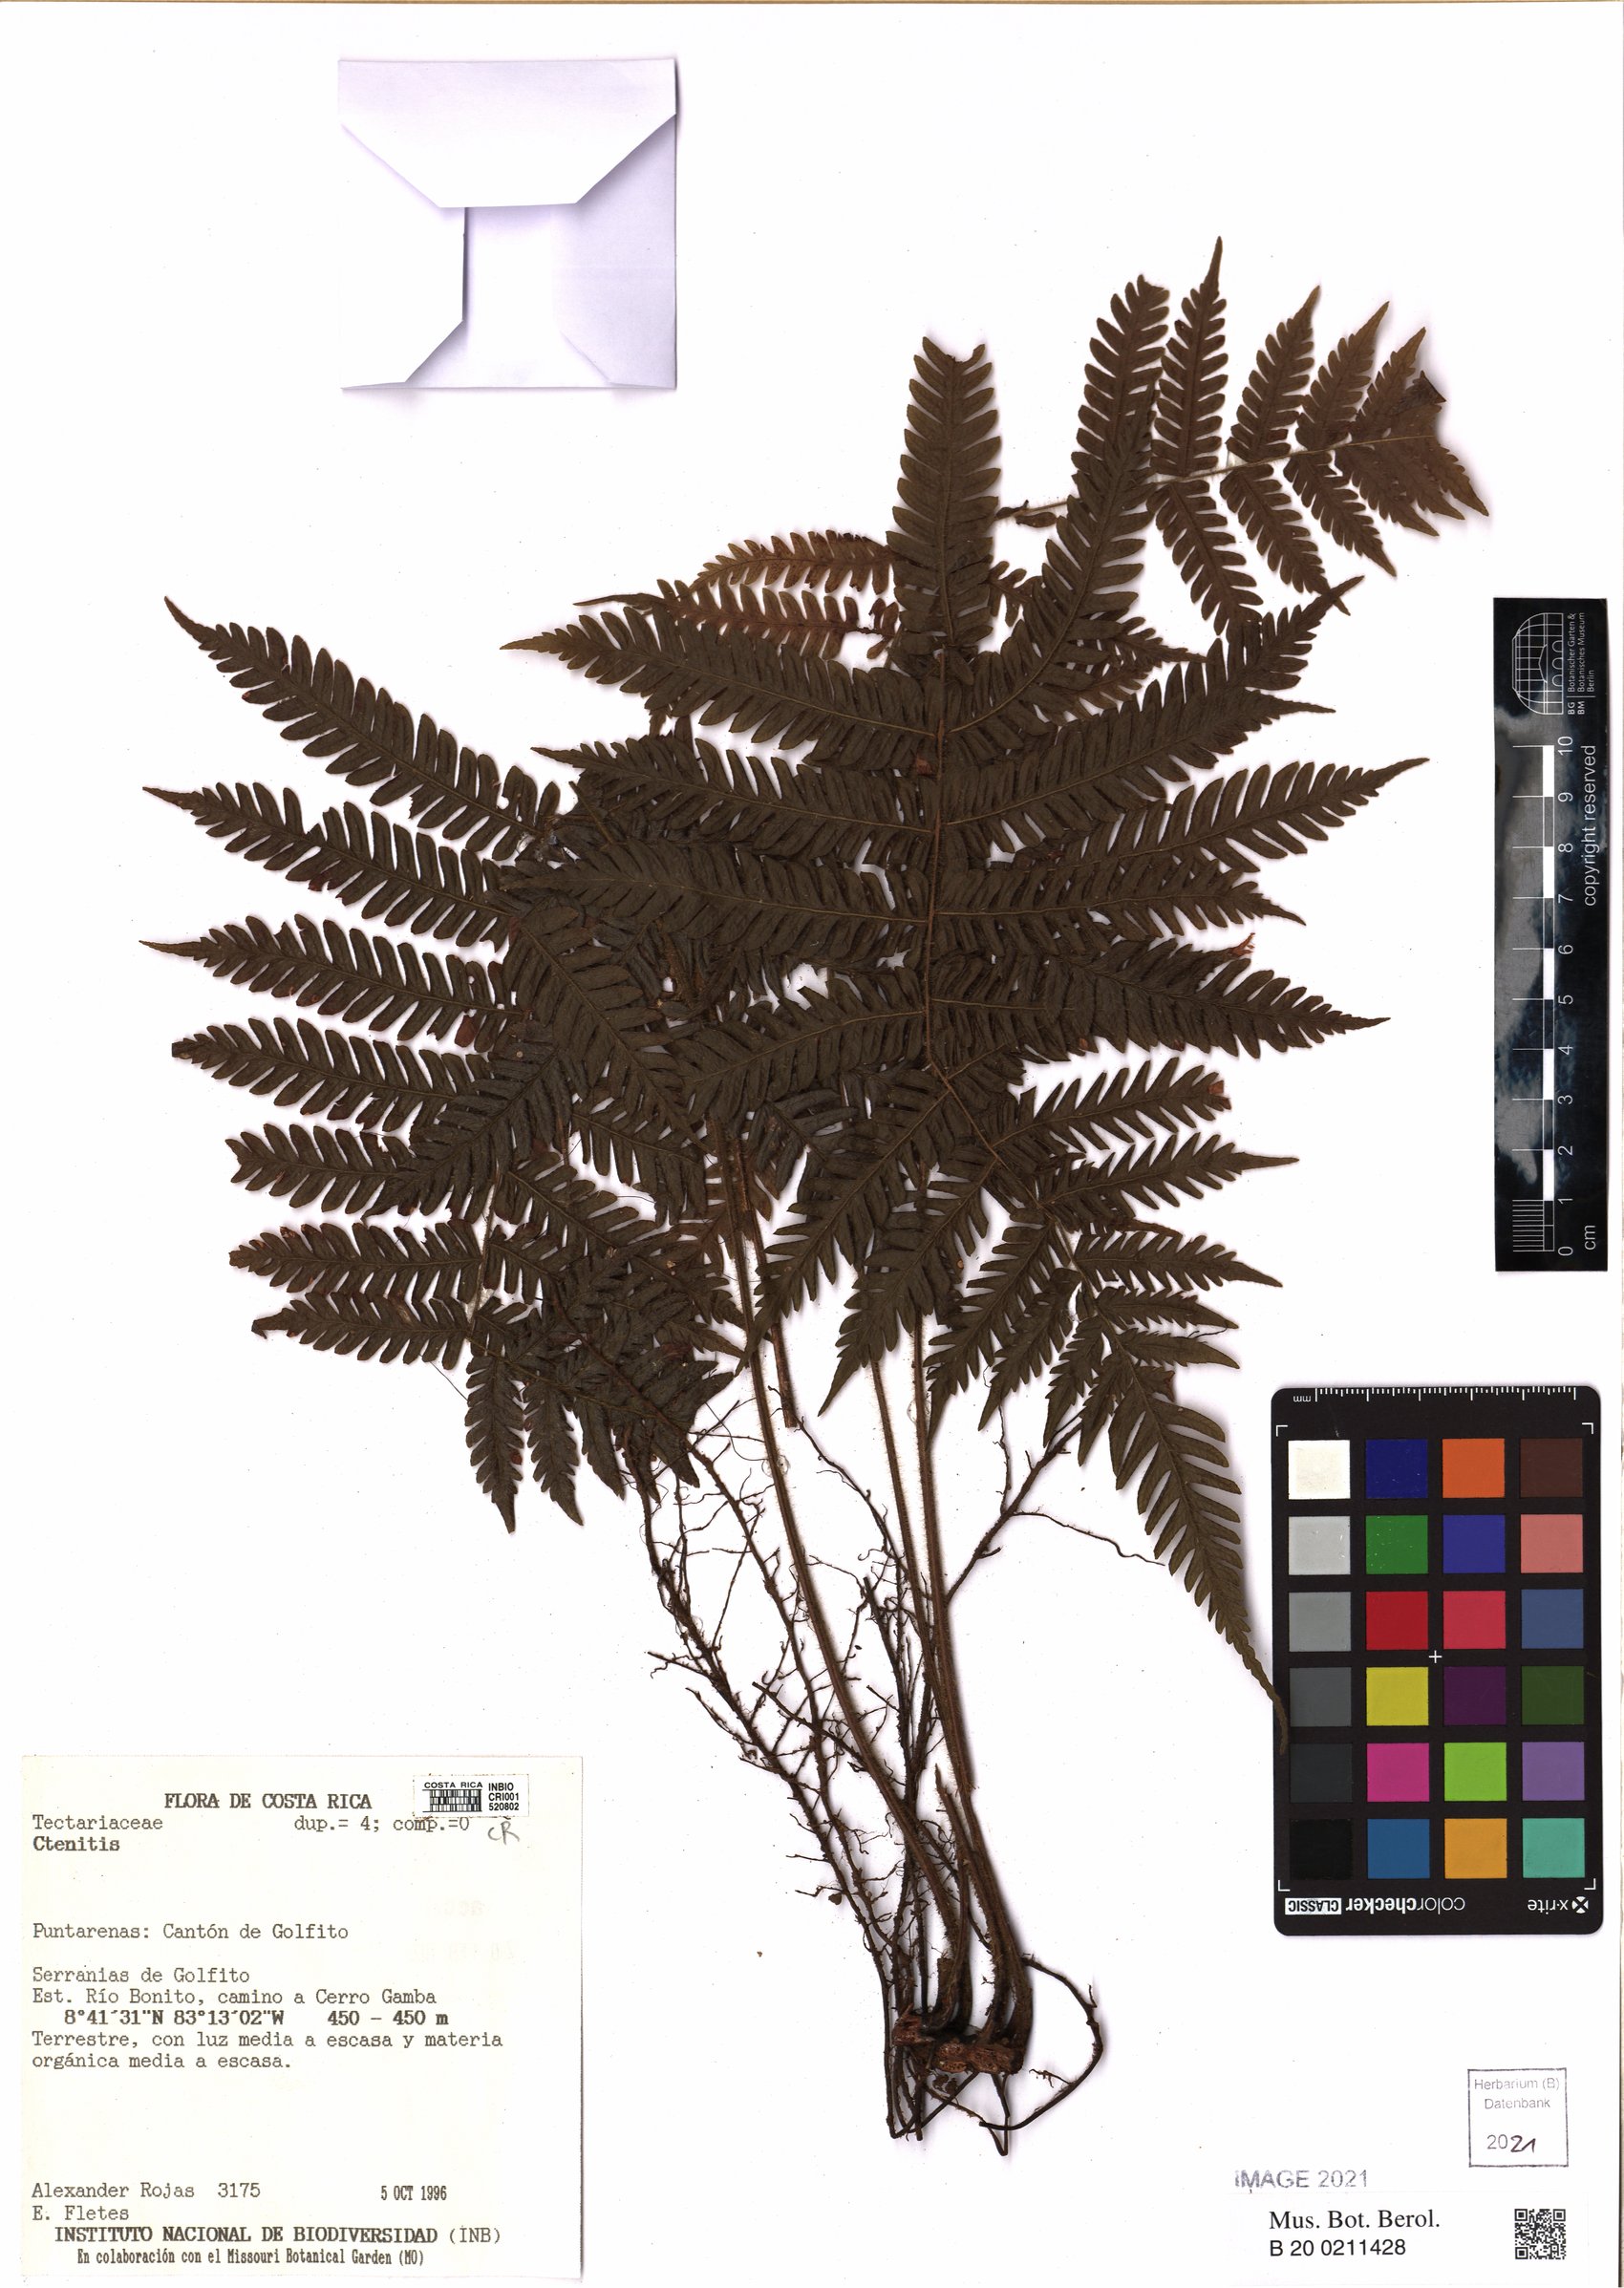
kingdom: Plantae
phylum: Tracheophyta
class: Polypodiopsida
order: Polypodiales
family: Dryopteridaceae
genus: Ctenitis
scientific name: Ctenitis
